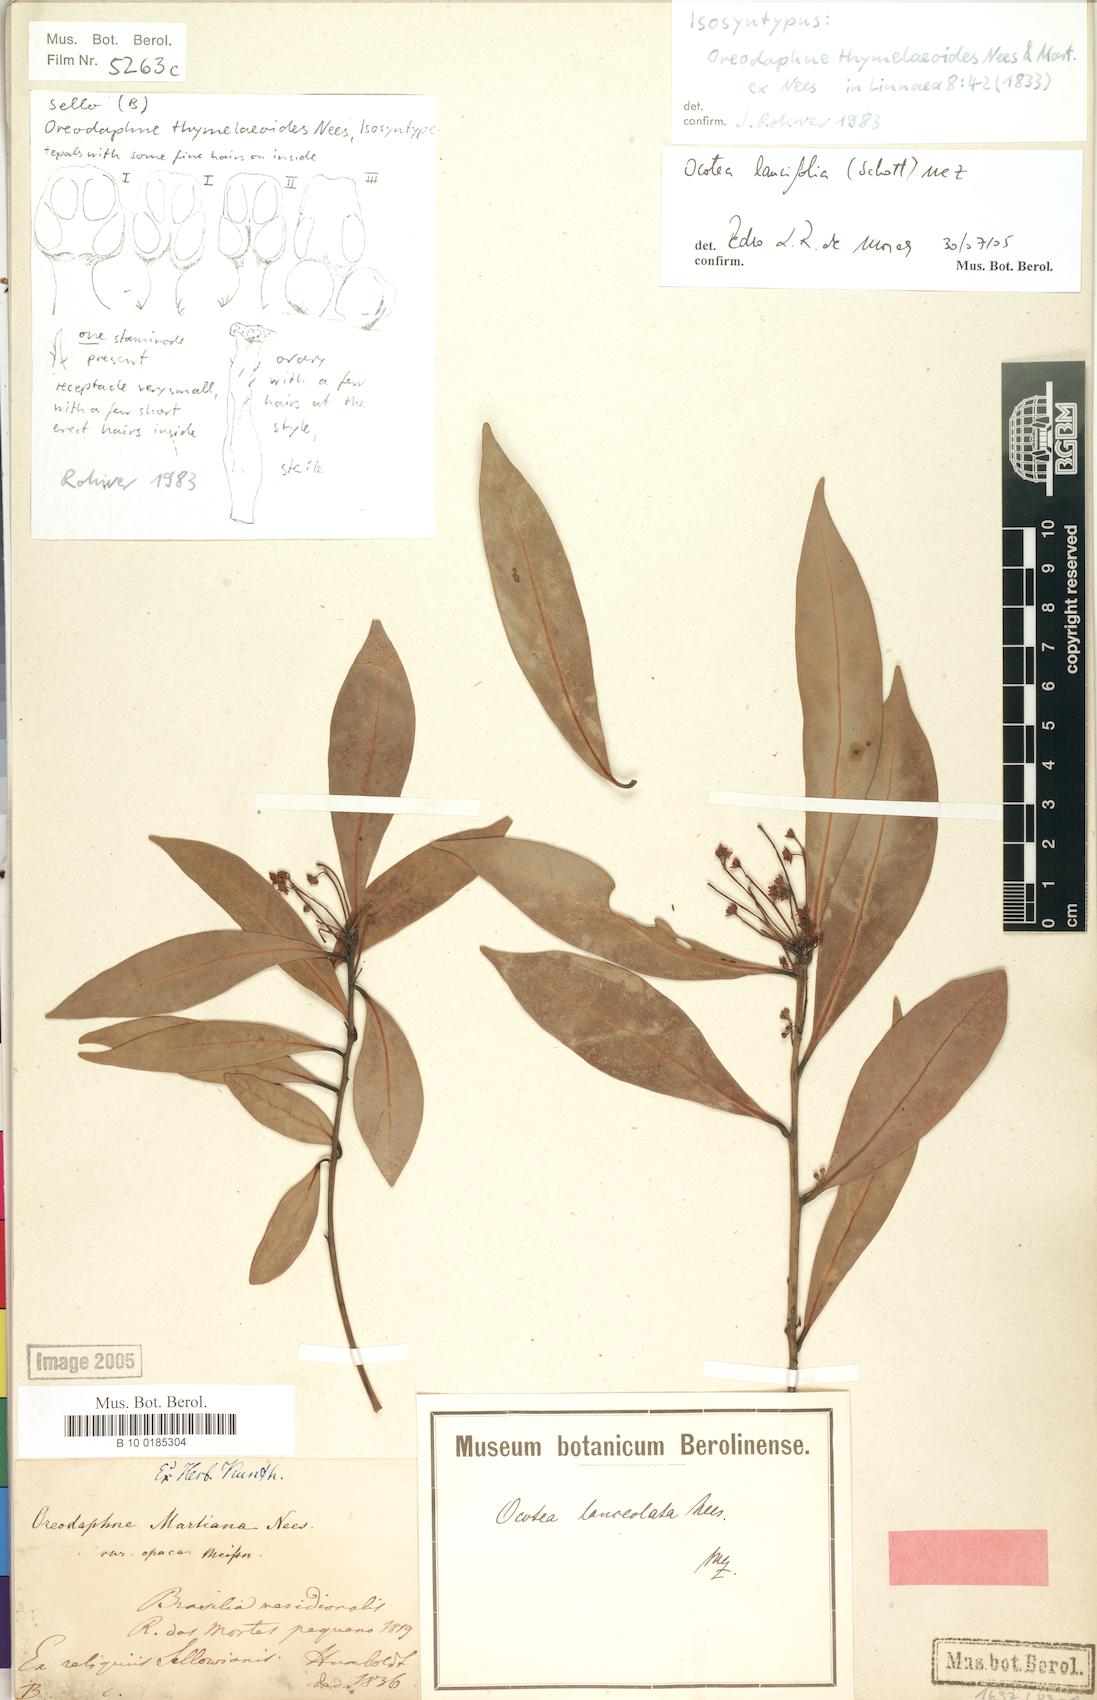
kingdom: Plantae
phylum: Tracheophyta
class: Magnoliopsida
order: Laurales
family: Lauraceae
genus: Ocotea
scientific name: Ocotea lancifolia
